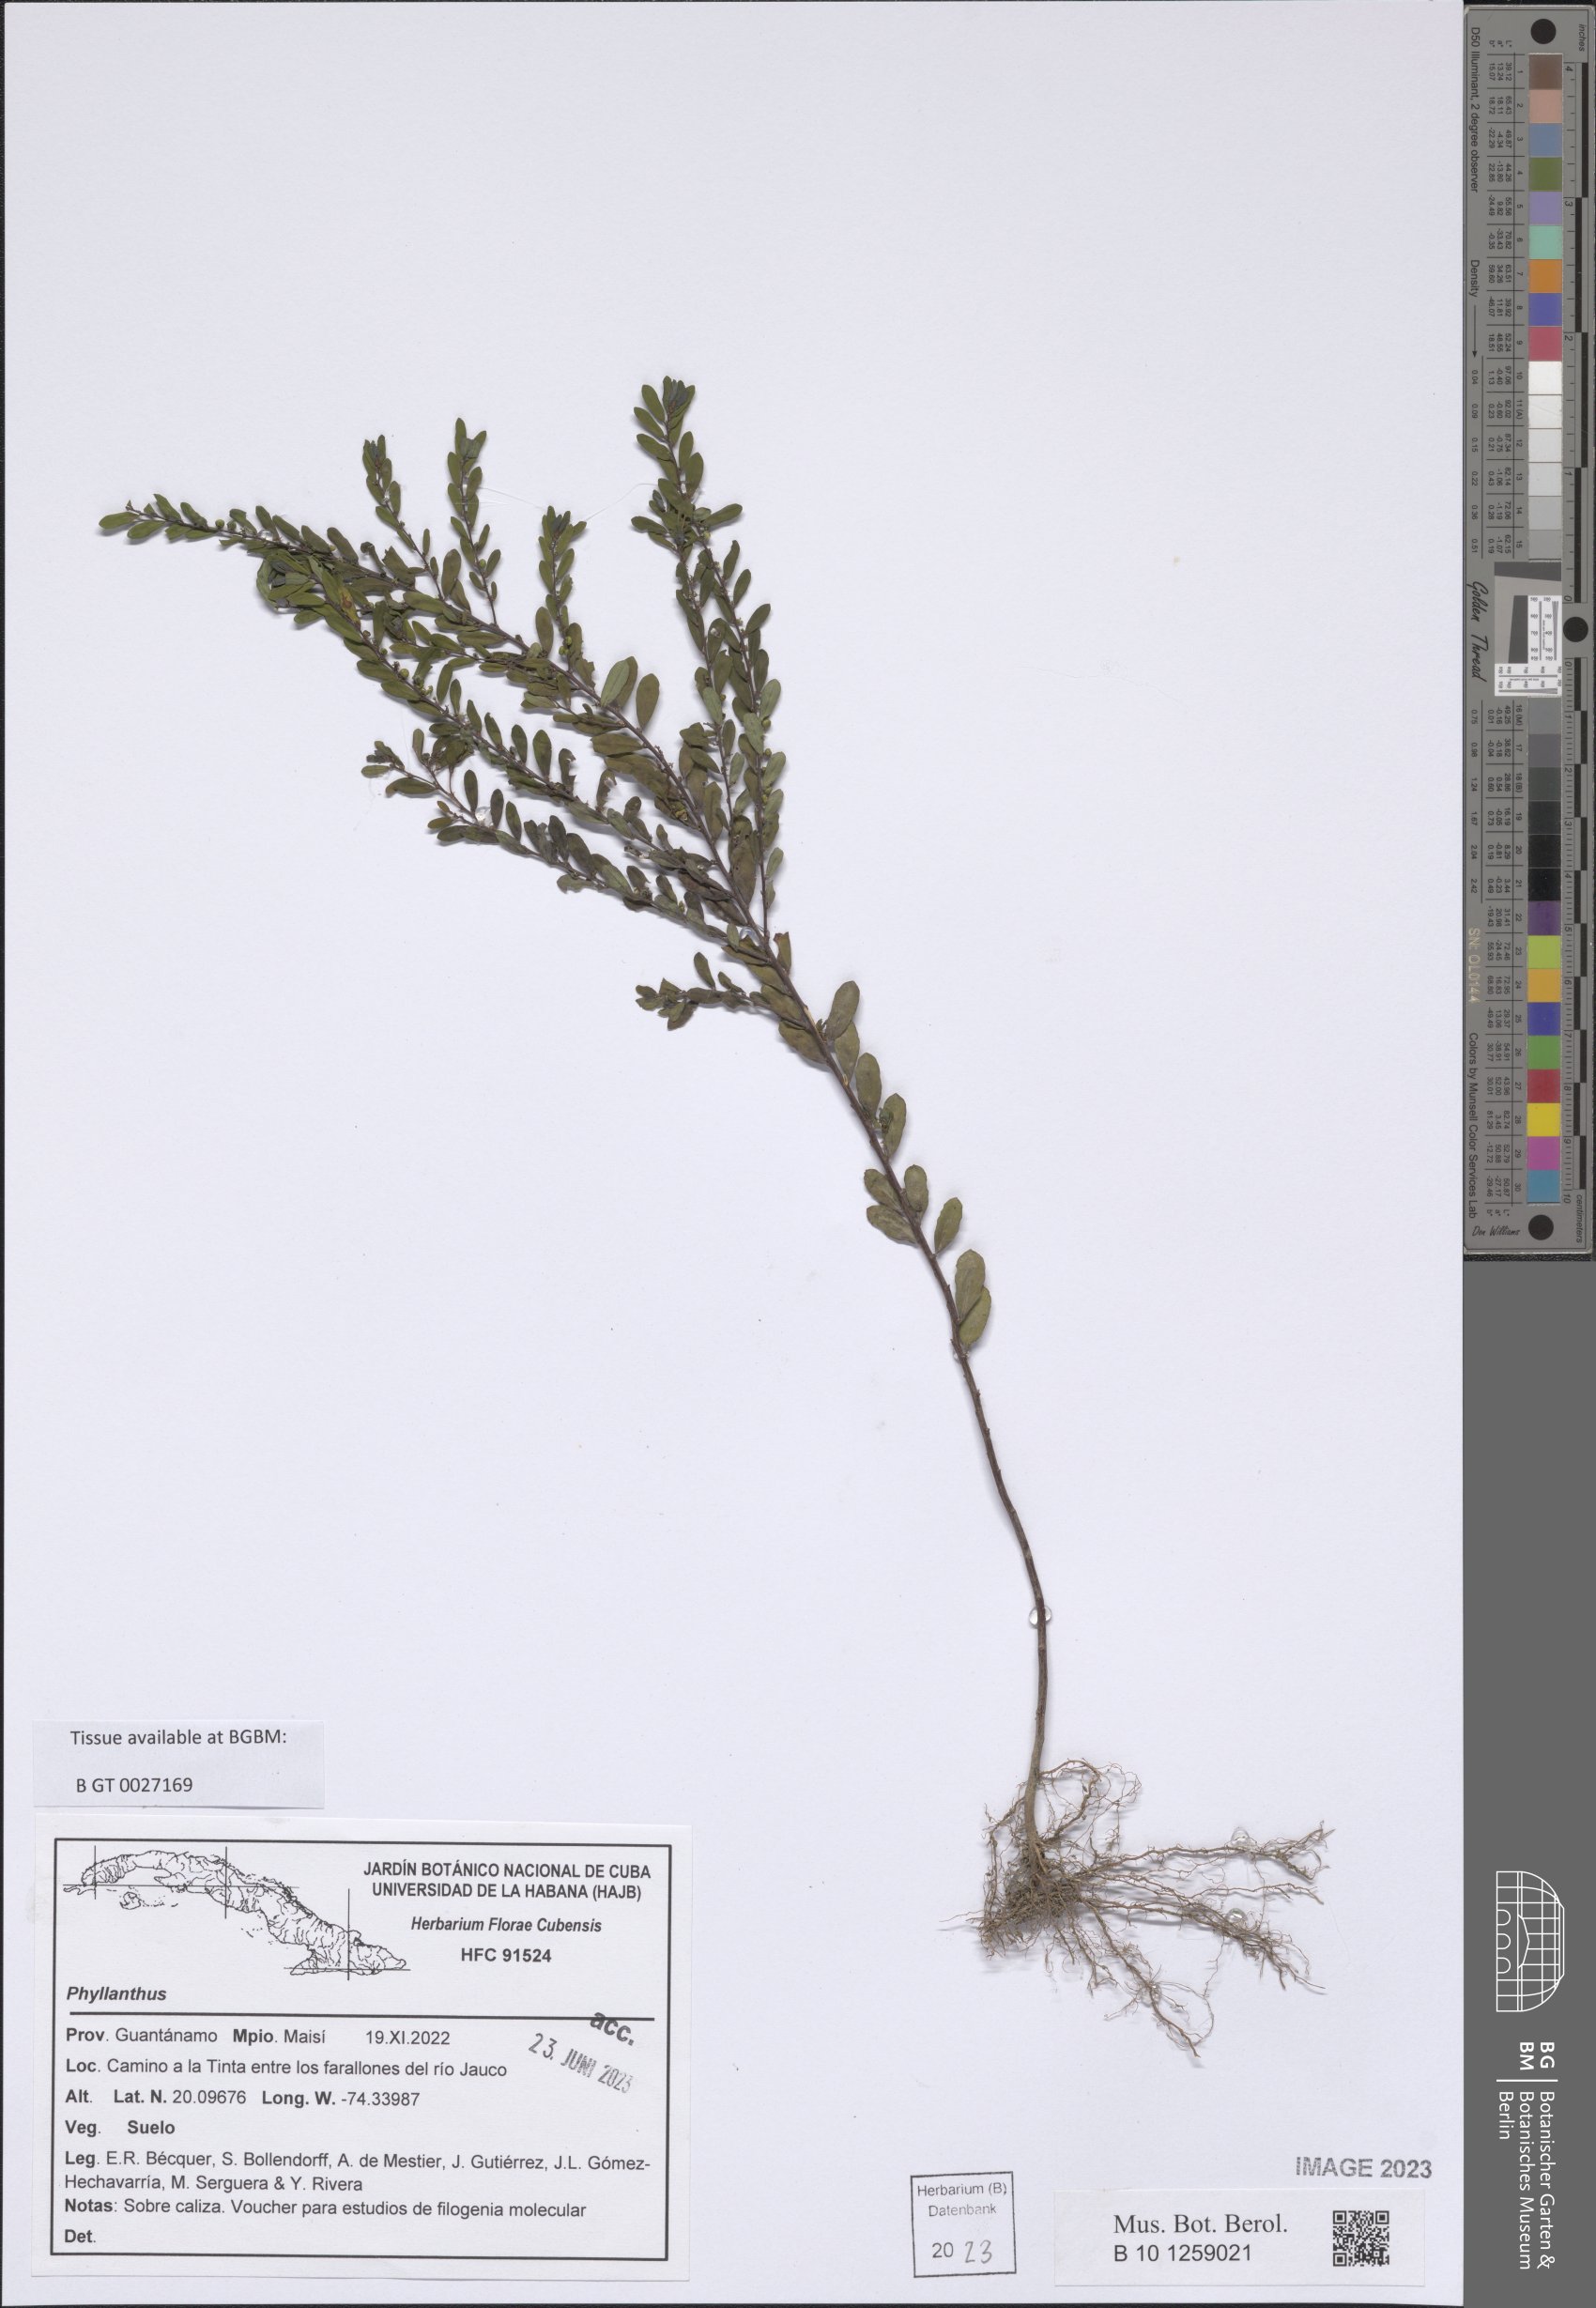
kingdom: Plantae
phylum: Tracheophyta
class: Magnoliopsida
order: Malpighiales
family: Phyllanthaceae
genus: Phyllanthus
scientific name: Phyllanthus
